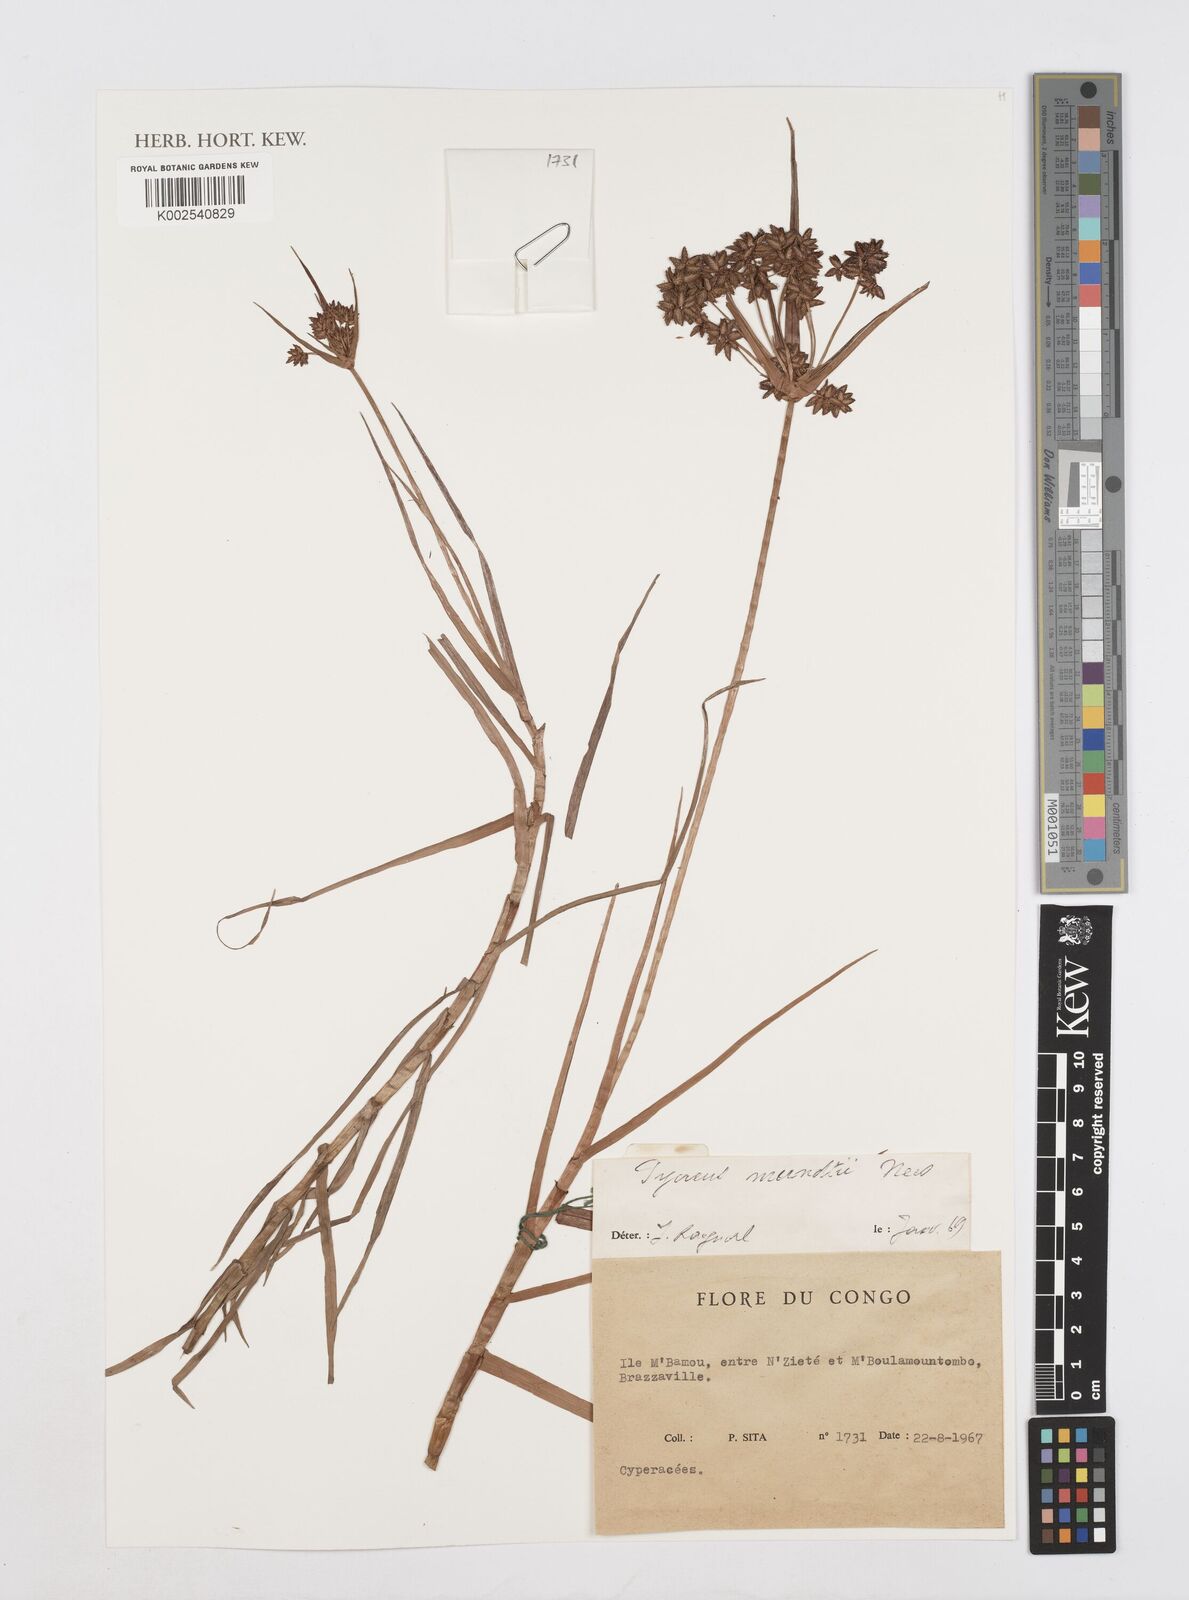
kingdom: Plantae
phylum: Tracheophyta
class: Liliopsida
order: Poales
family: Cyperaceae
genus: Cyperus
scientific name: Cyperus mundii
